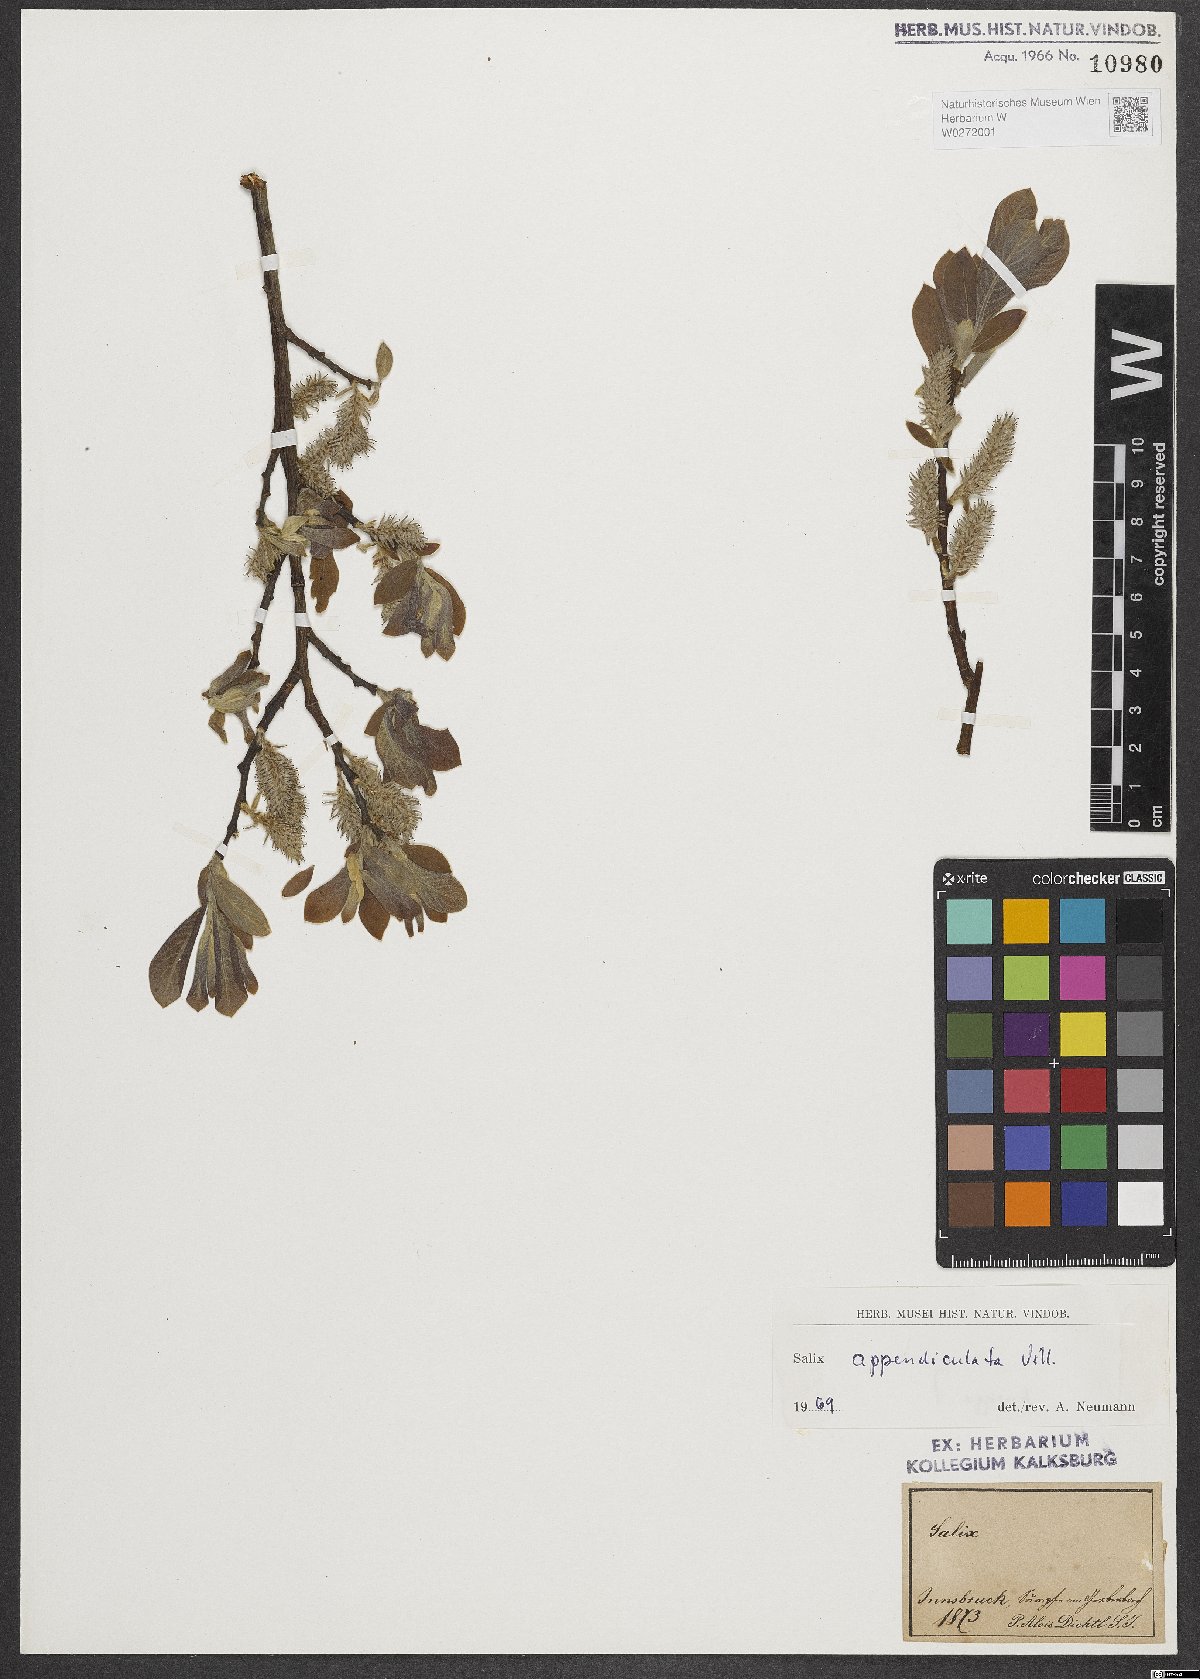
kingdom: Plantae
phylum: Tracheophyta
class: Magnoliopsida
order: Malpighiales
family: Salicaceae
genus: Salix
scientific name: Salix appendiculata
